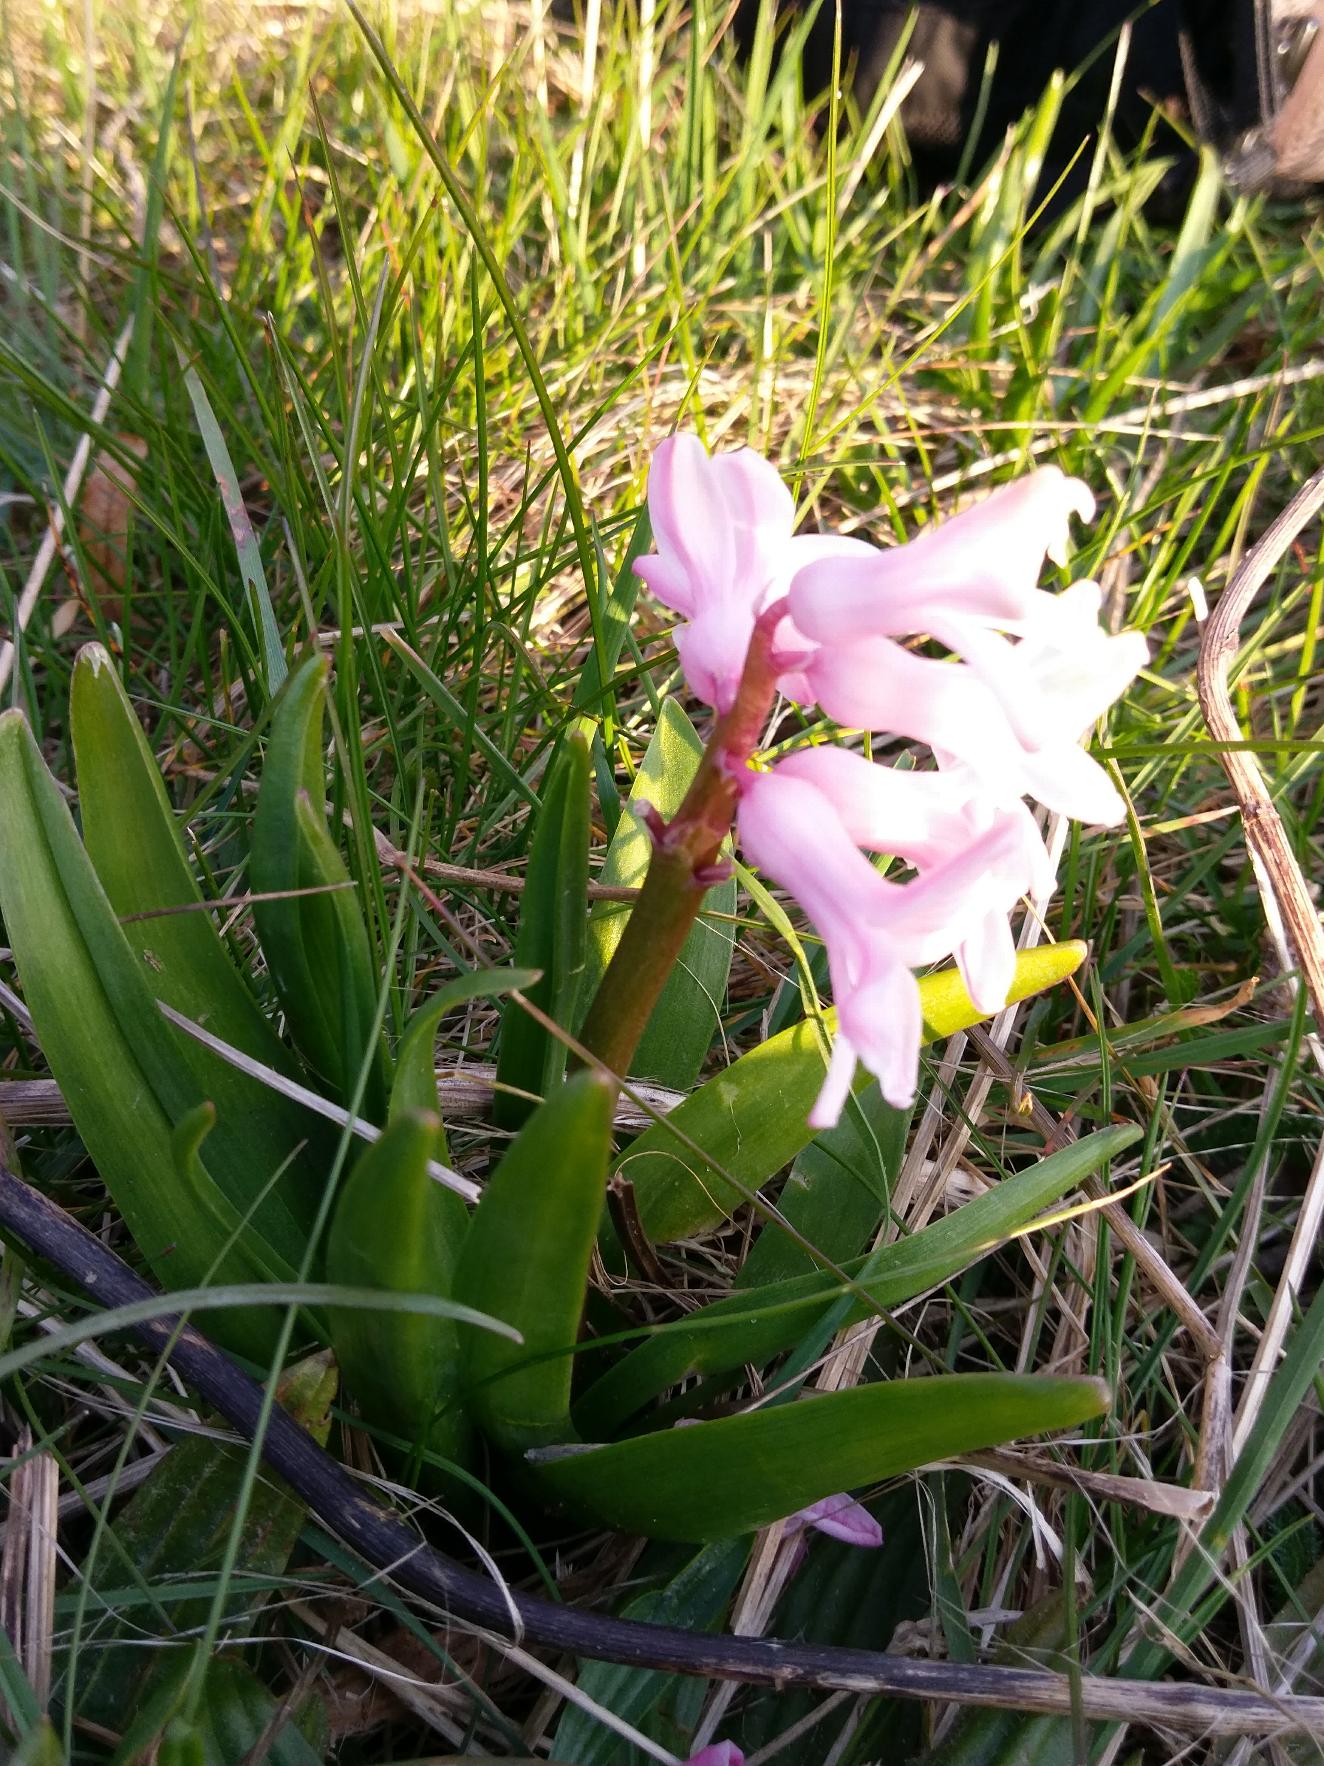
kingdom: Plantae
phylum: Tracheophyta
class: Liliopsida
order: Asparagales
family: Asparagaceae
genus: Hyacinthus
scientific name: Hyacinthus orientalis
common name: Hyacint
